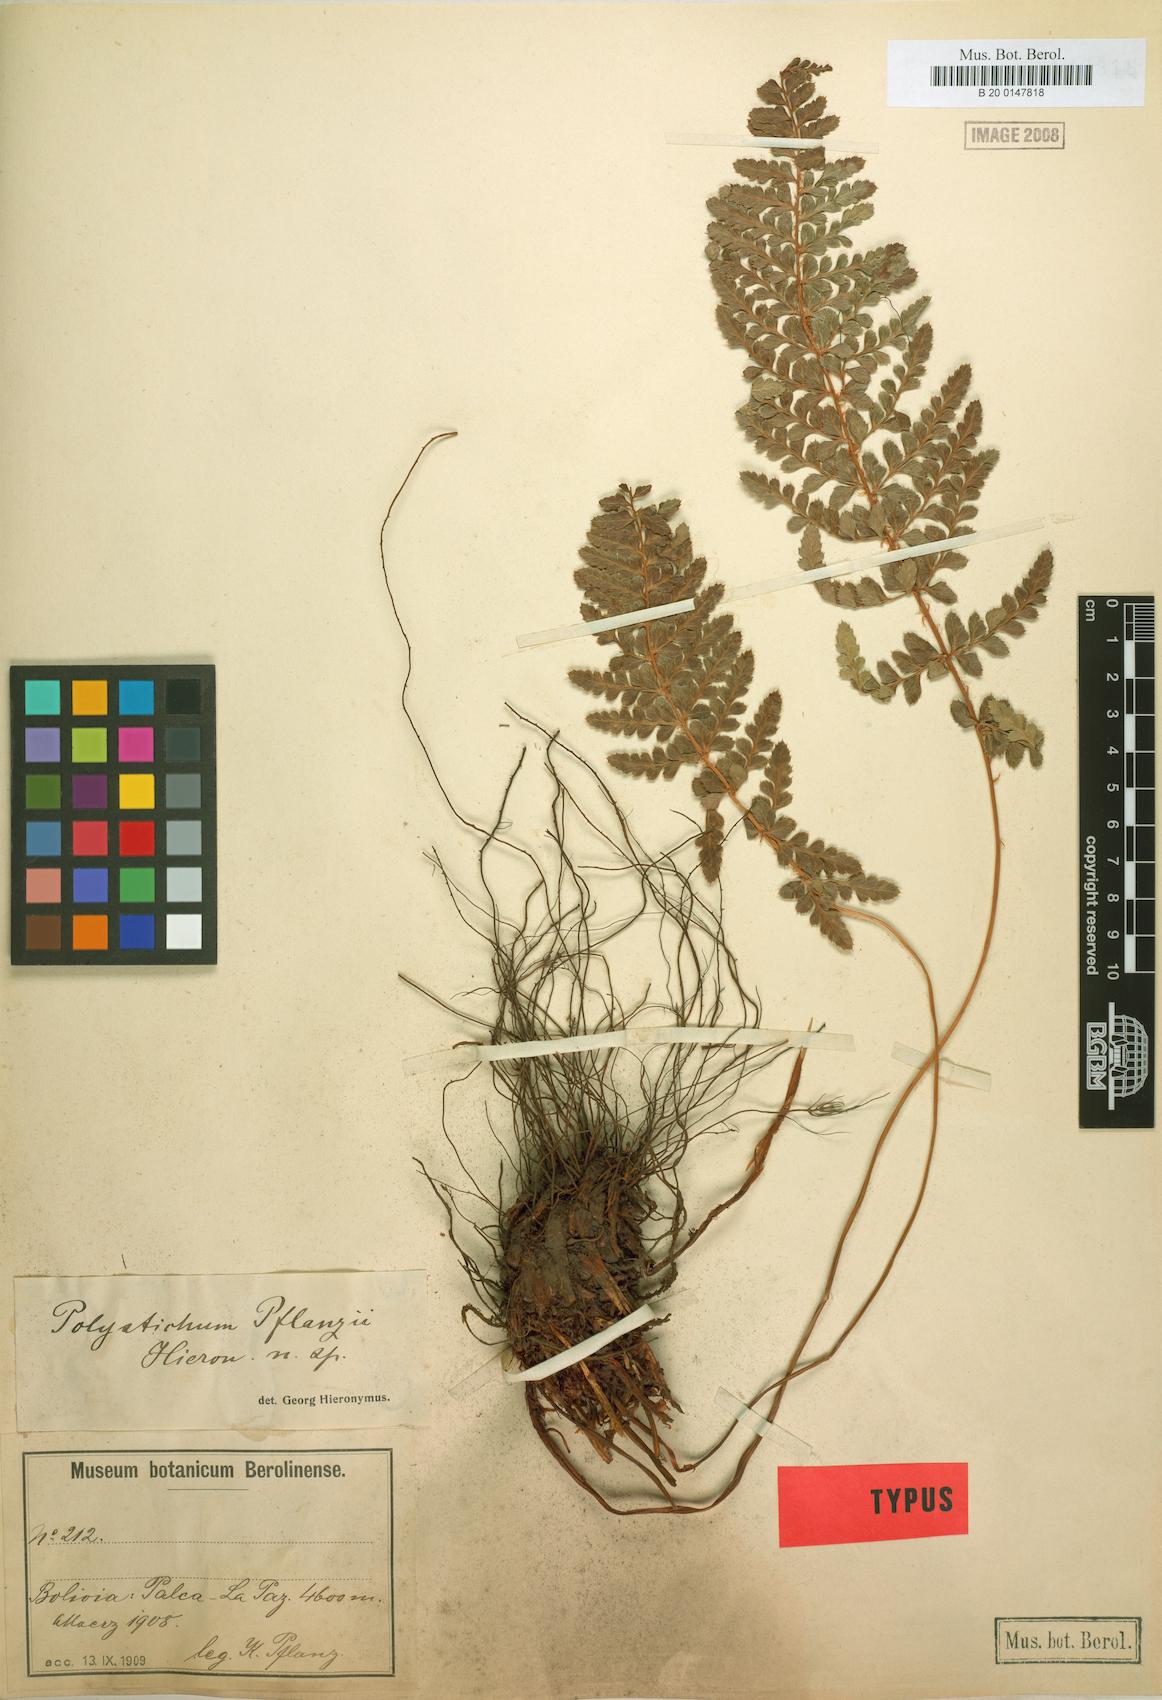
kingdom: Plantae
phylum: Tracheophyta
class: Polypodiopsida
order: Polypodiales
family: Dryopteridaceae
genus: Polystichum
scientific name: Polystichum cochleatum
